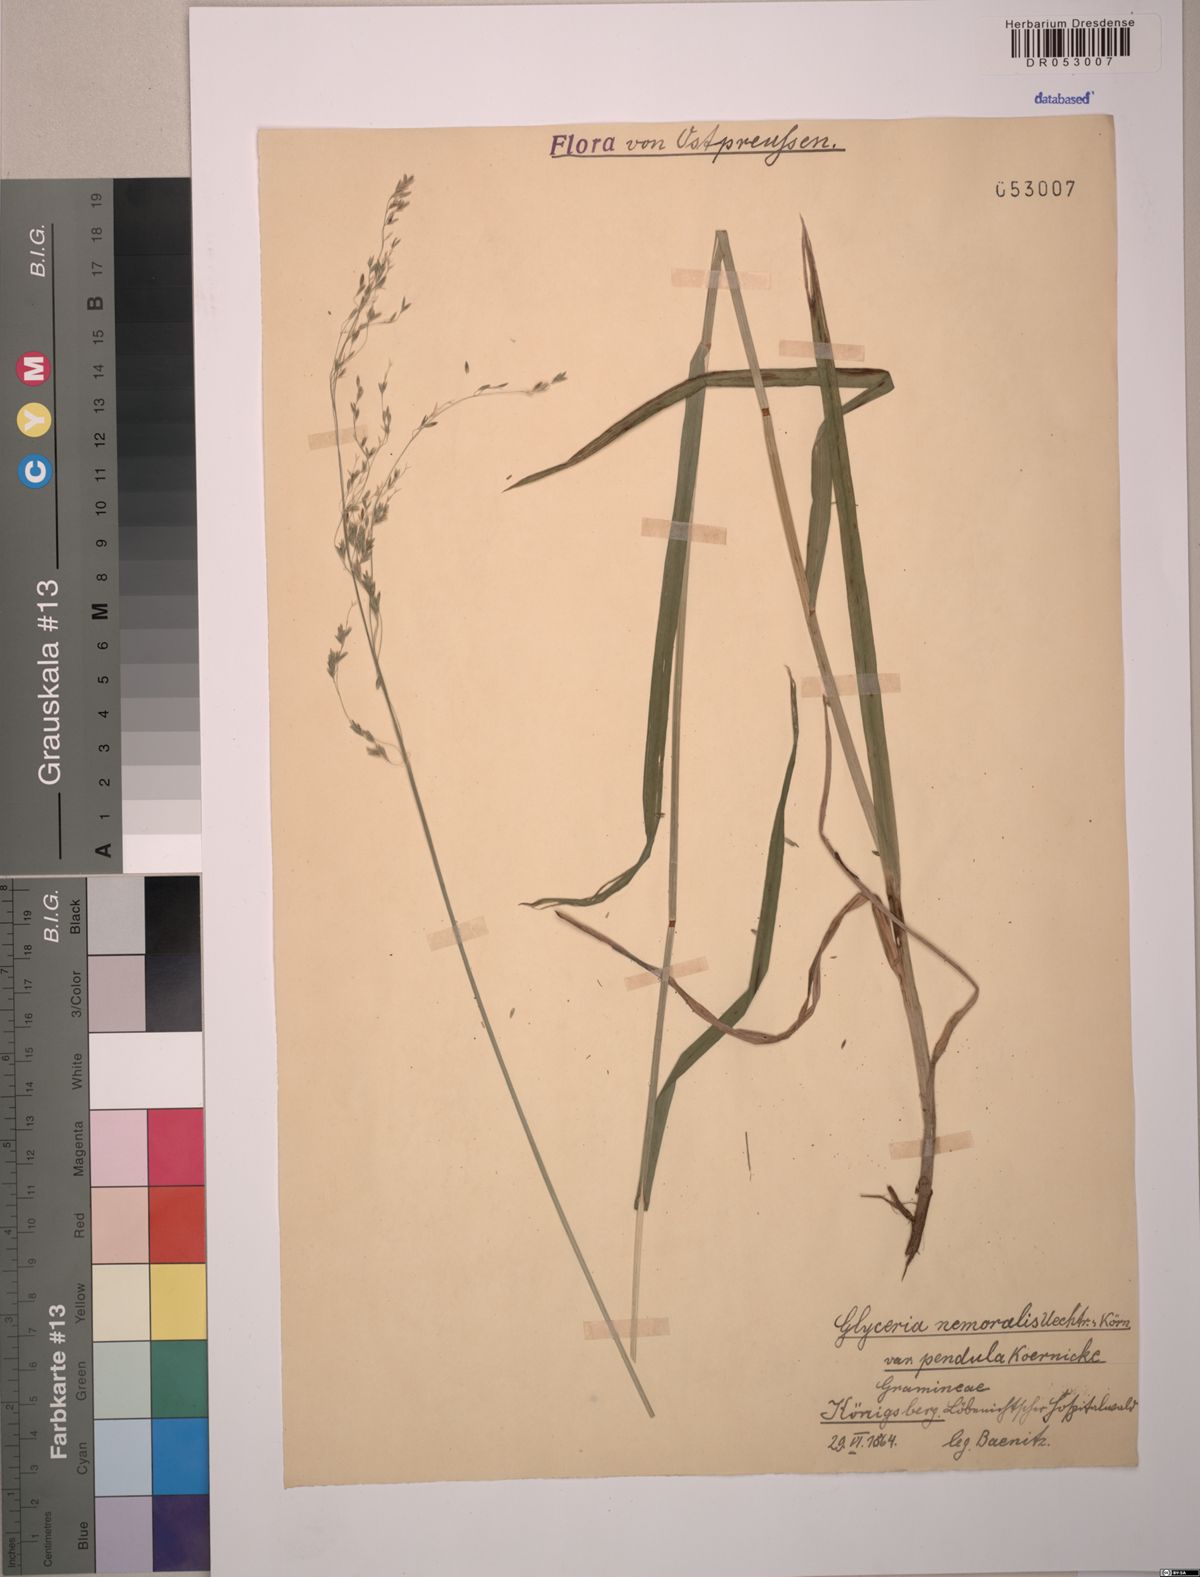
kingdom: Plantae
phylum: Tracheophyta
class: Liliopsida
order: Poales
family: Poaceae
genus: Glyceria
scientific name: Glyceria nemoralis
